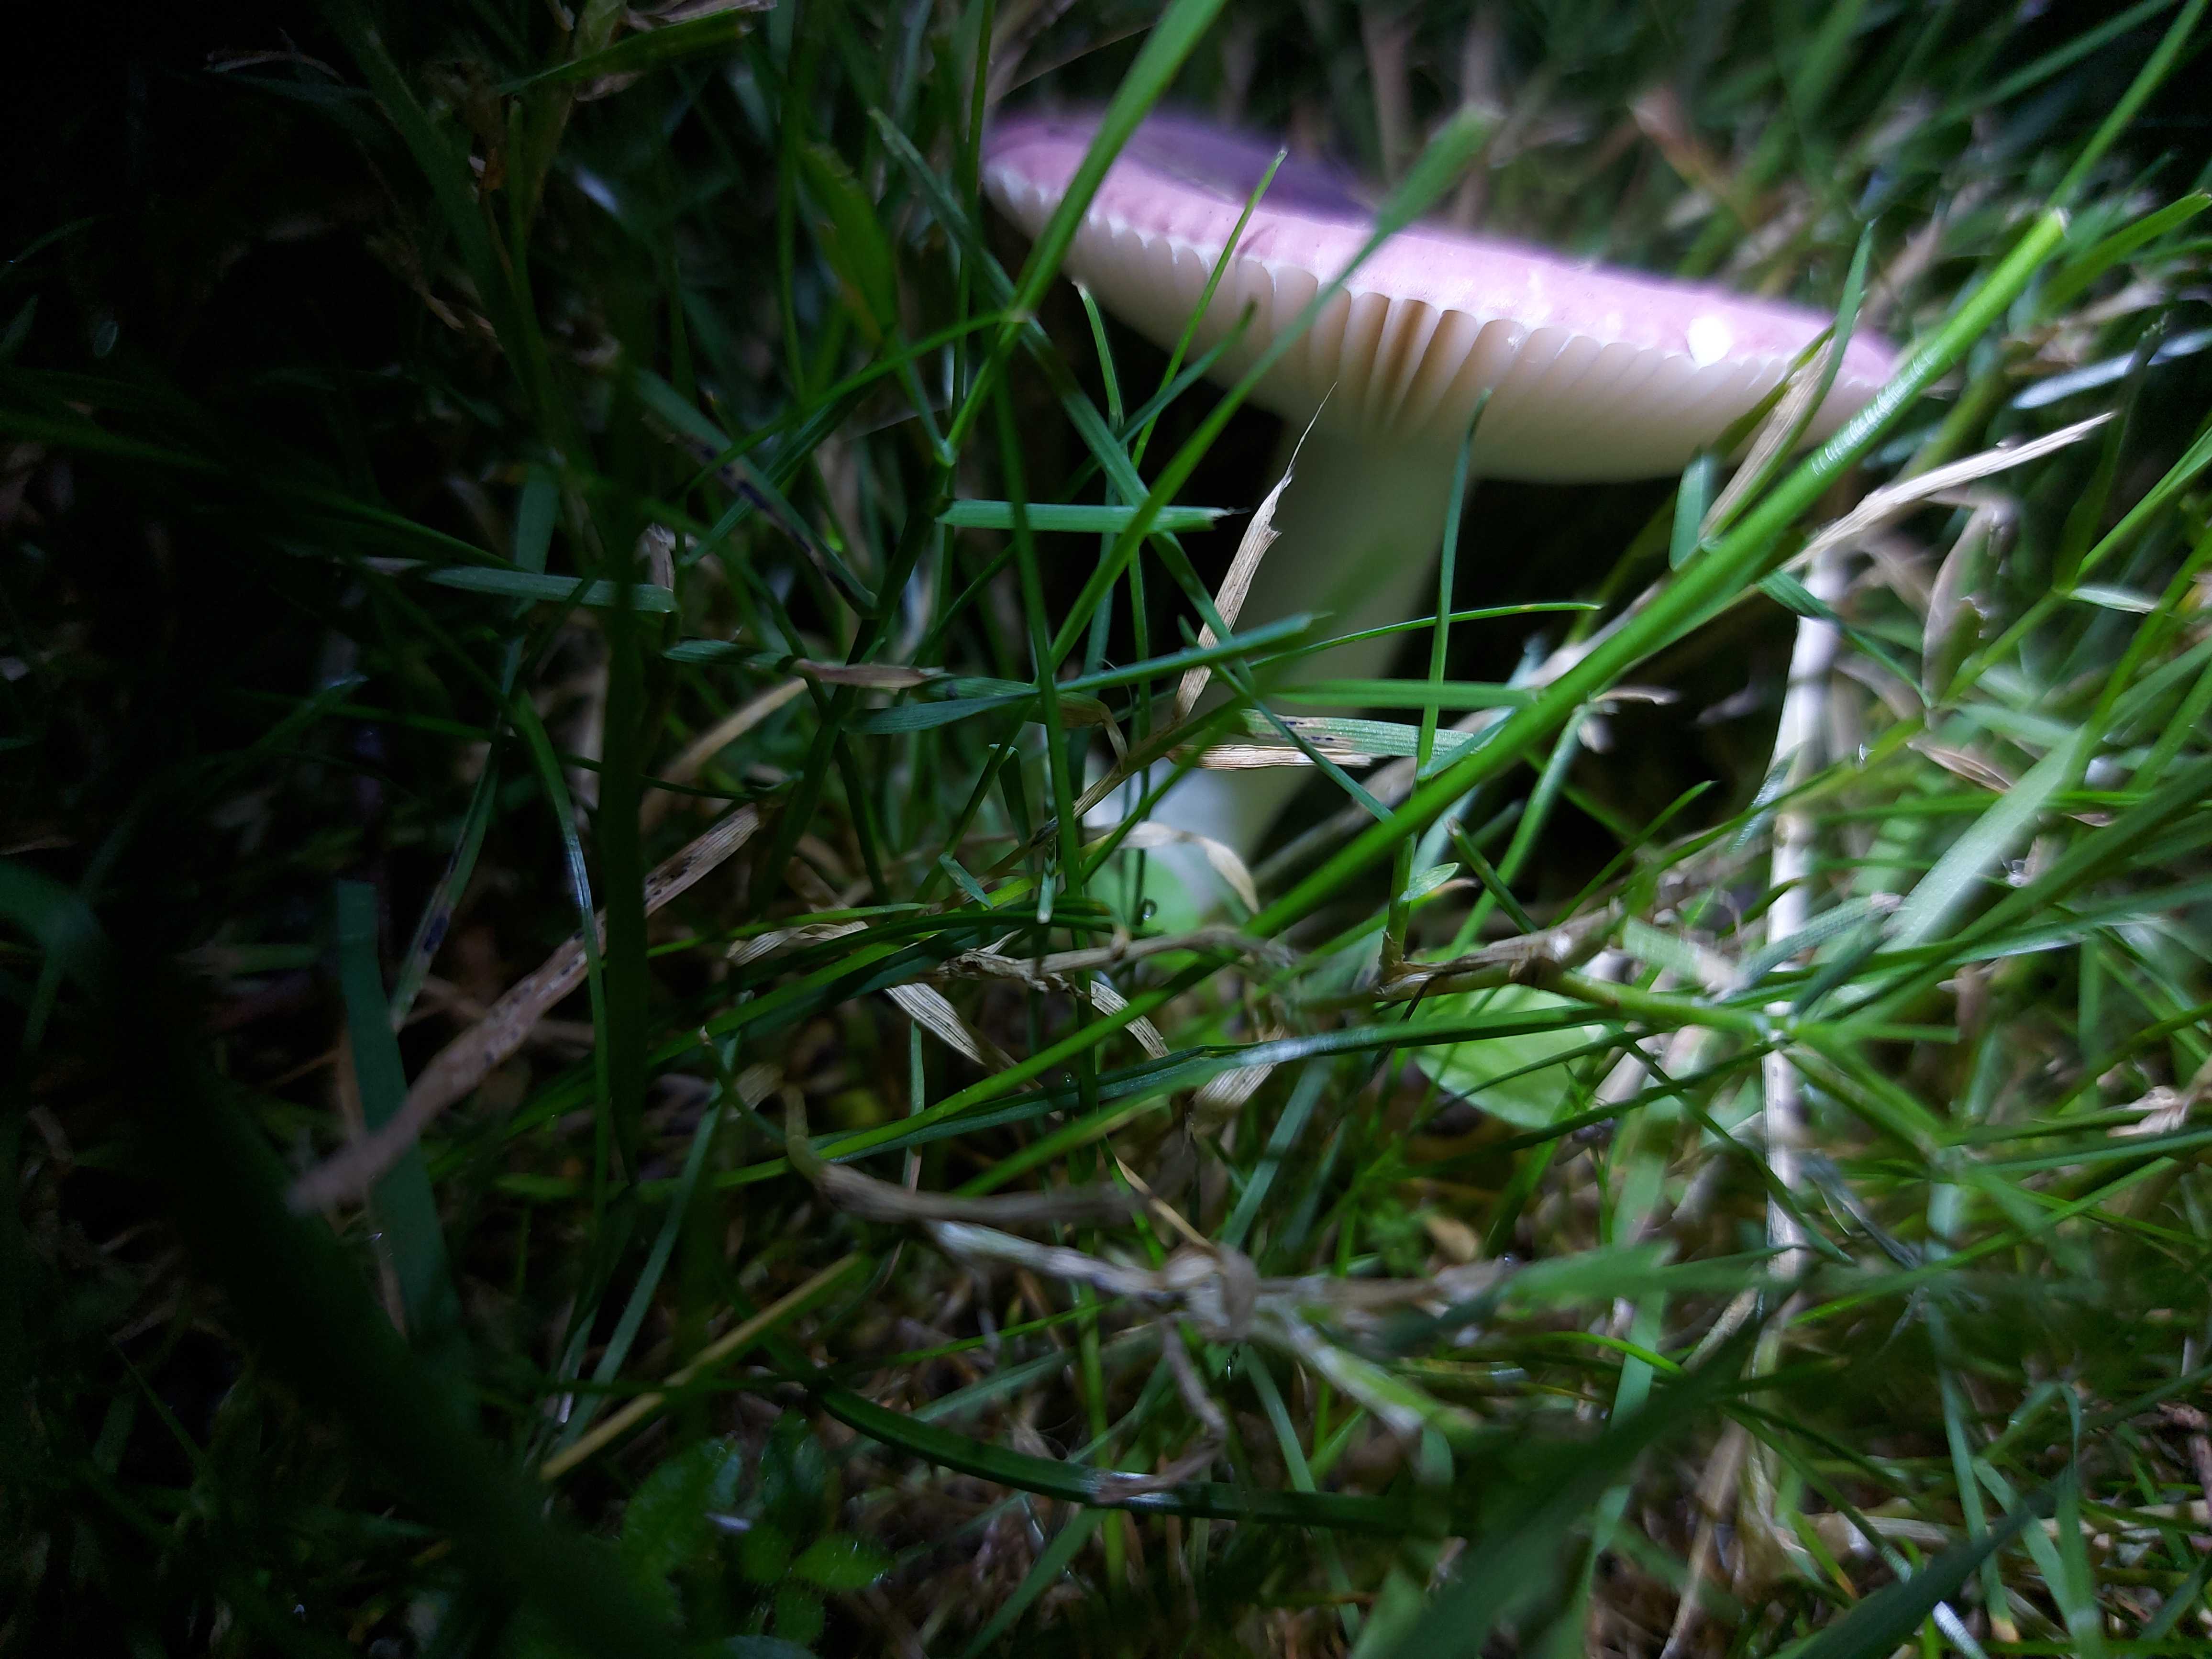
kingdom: Fungi
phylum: Basidiomycota
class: Agaricomycetes
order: Russulales
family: Russulaceae
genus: Russula
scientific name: Russula fragilis
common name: savbladet skørhat
